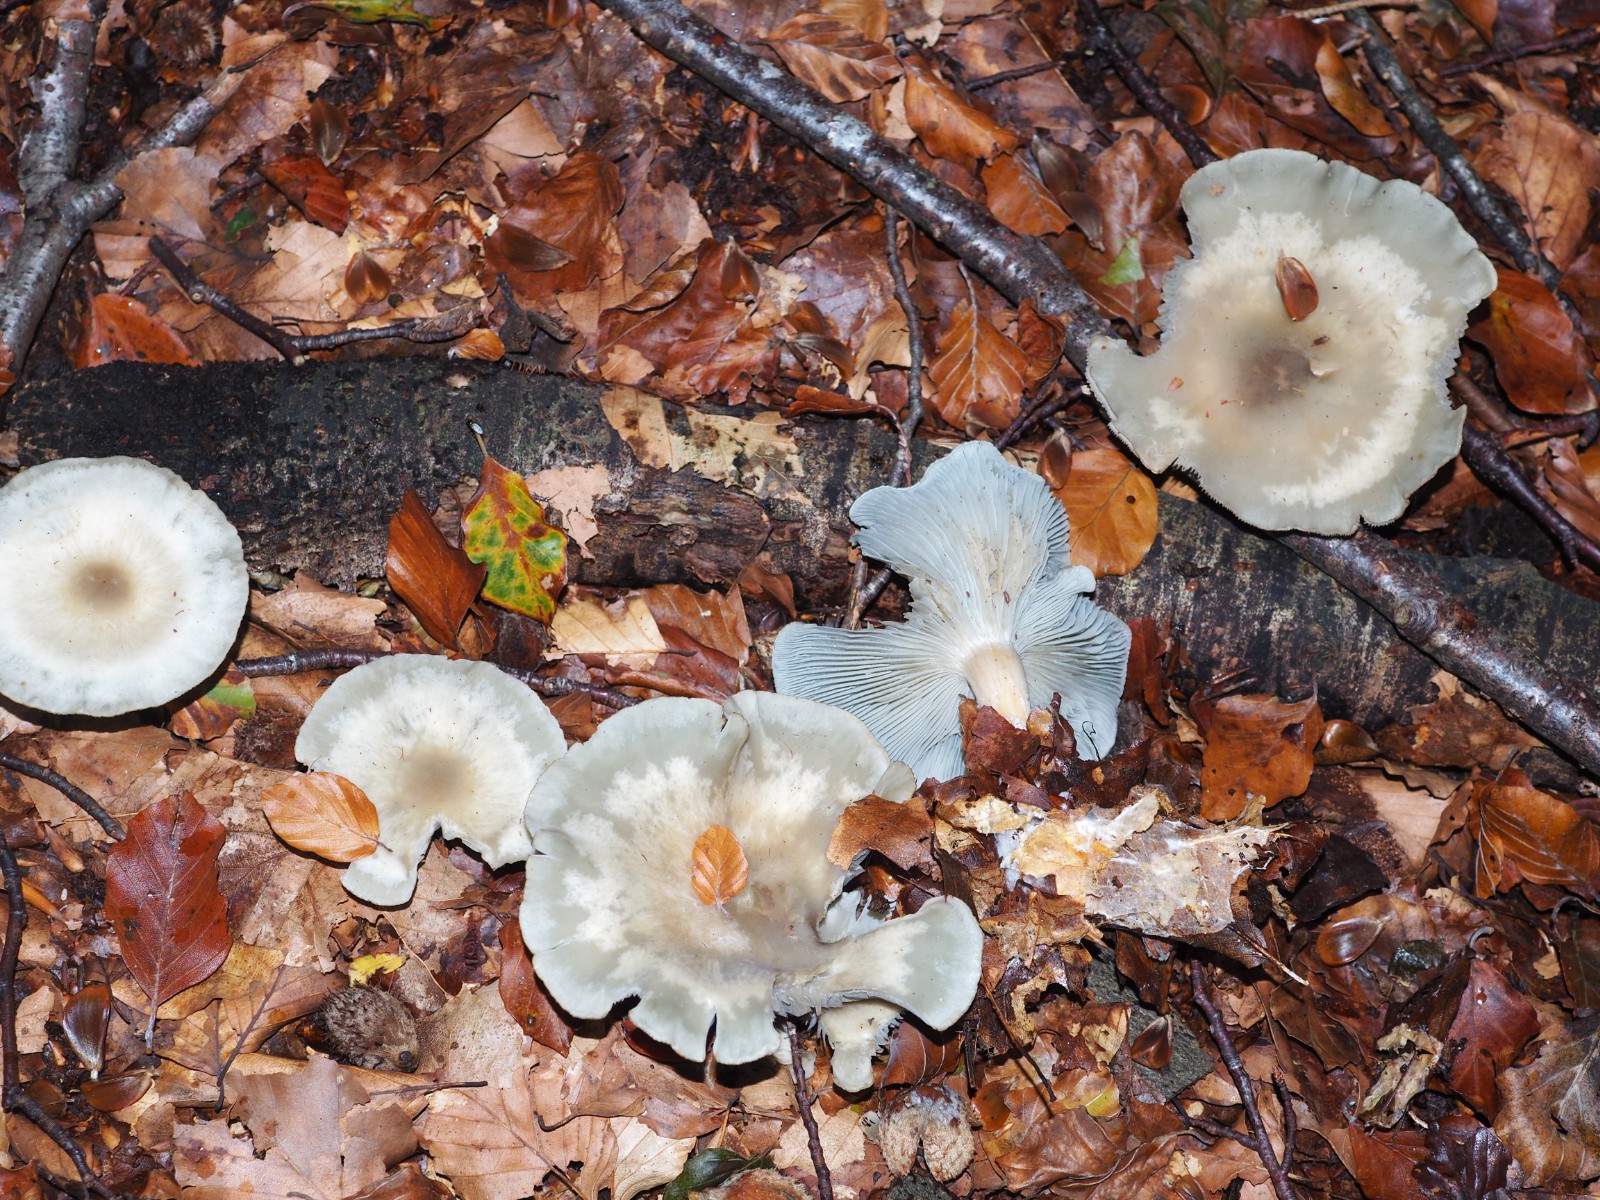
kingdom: Fungi
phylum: Basidiomycota
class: Agaricomycetes
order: Agaricales
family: Tricholomataceae
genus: Clitocybe
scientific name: Clitocybe odora
